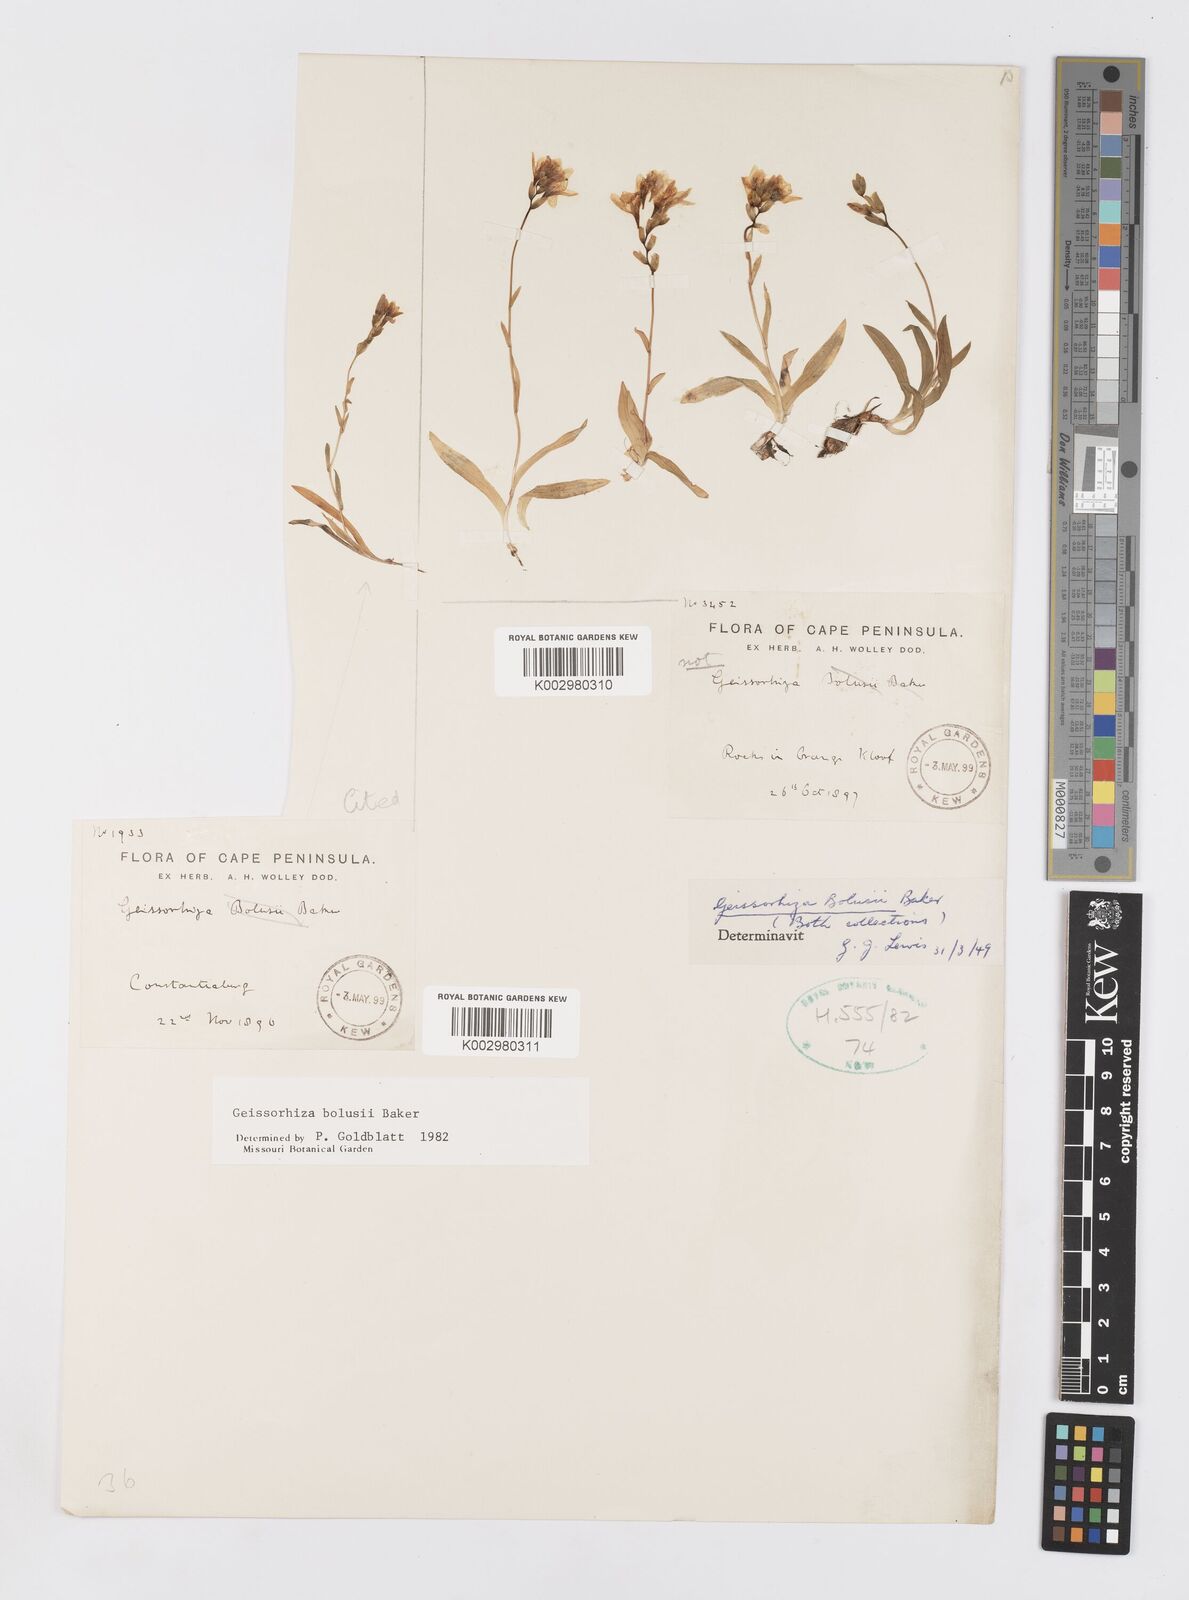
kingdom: Plantae
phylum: Tracheophyta
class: Liliopsida
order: Asparagales
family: Iridaceae
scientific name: Iridaceae
